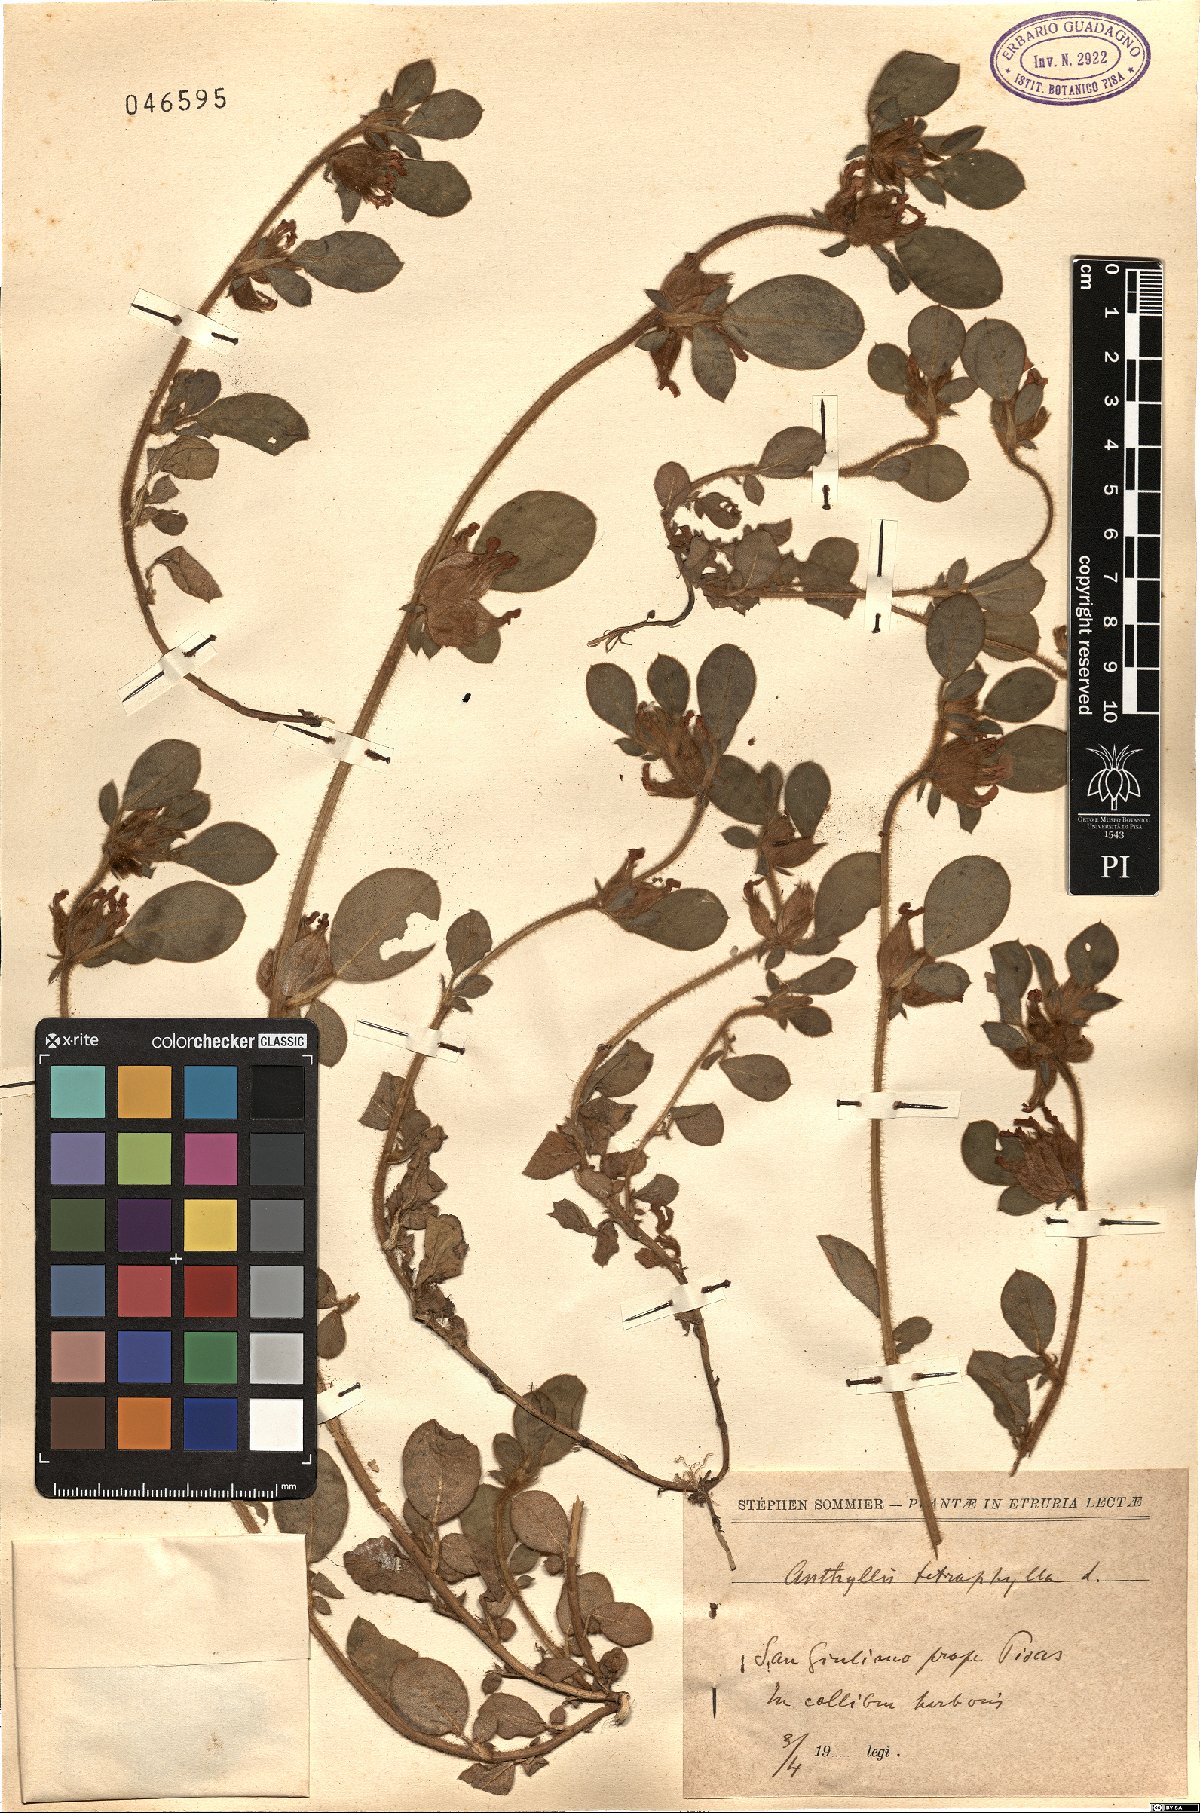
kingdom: Plantae
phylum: Tracheophyta
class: Magnoliopsida
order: Fabales
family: Fabaceae
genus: Tripodion
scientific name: Tripodion tetraphyllum
